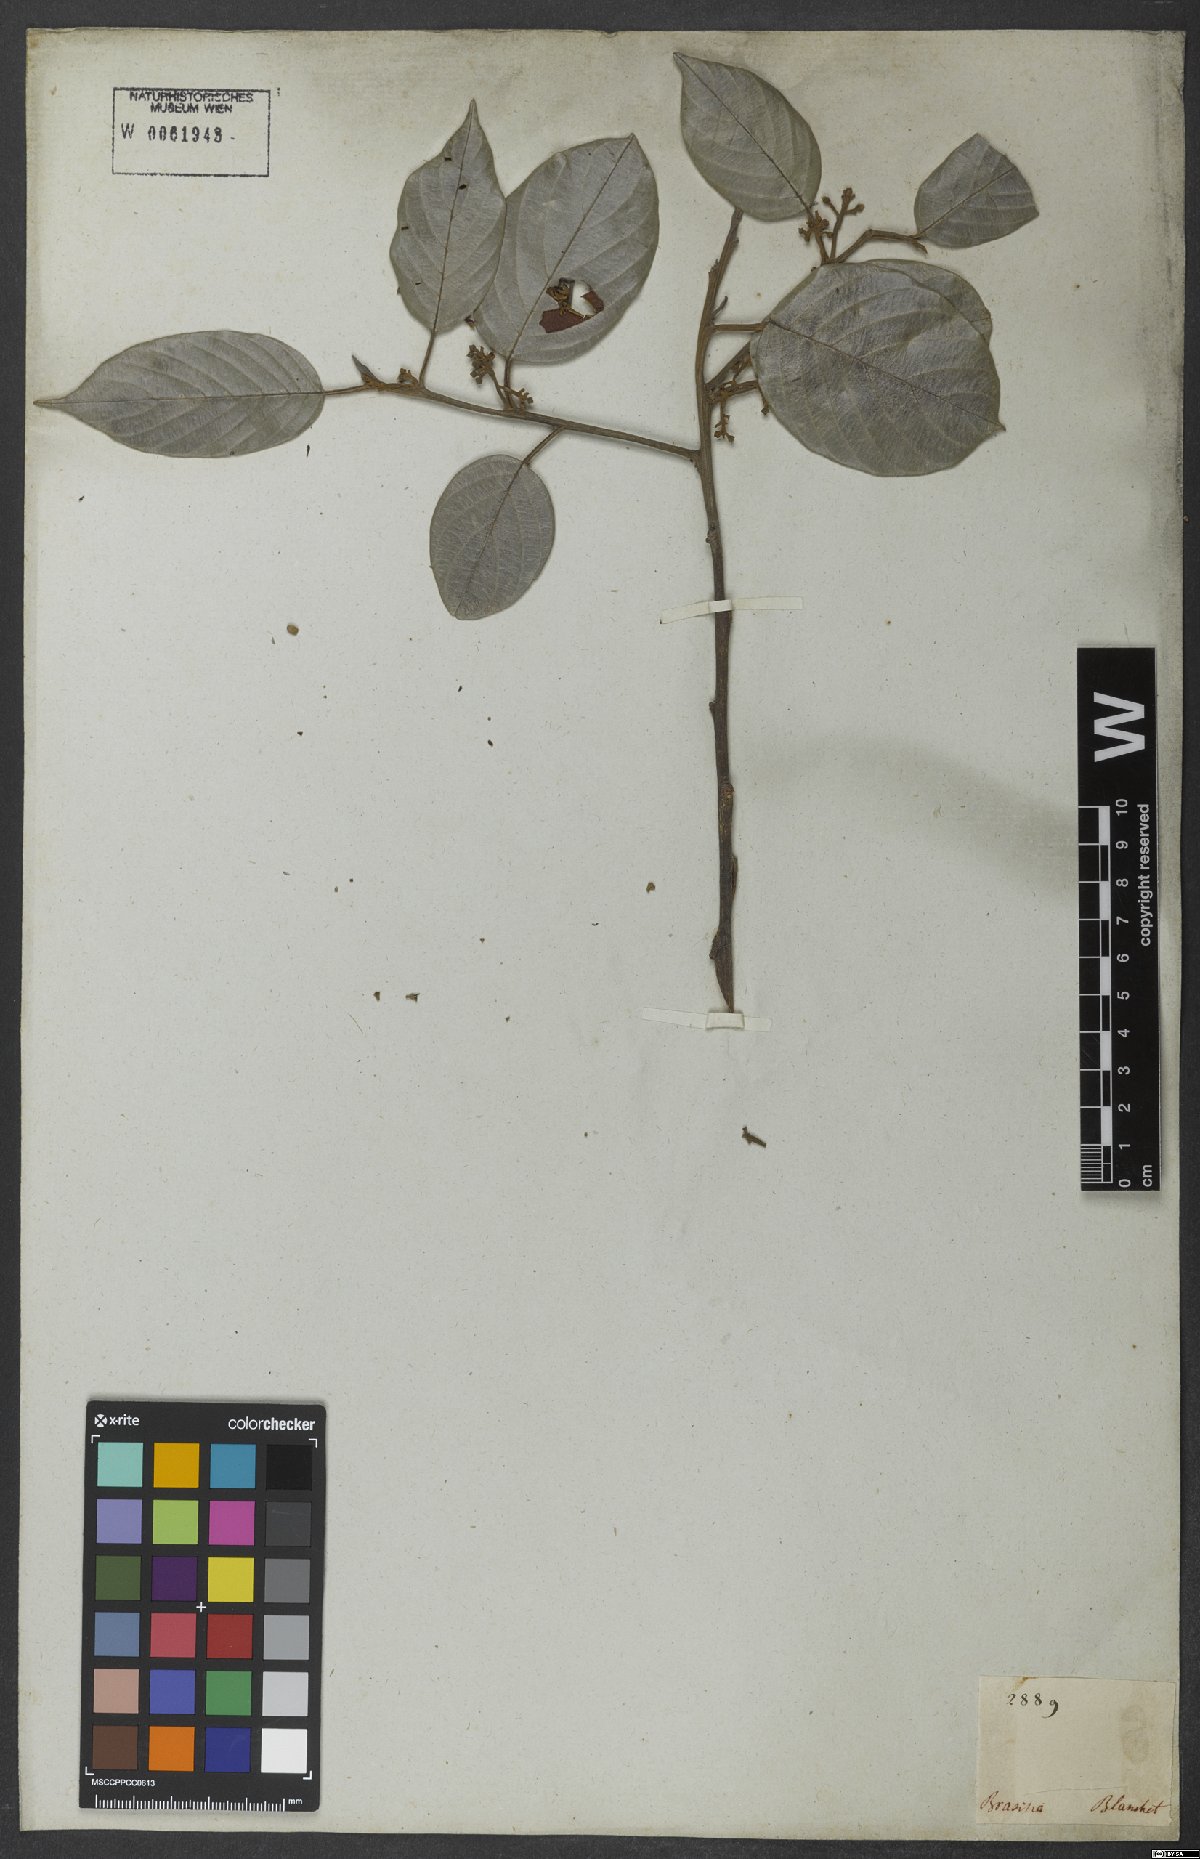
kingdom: Plantae
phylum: Tracheophyta
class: Magnoliopsida
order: Metteniusales
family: Metteniusaceae
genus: Emmotum
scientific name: Emmotum nitens
